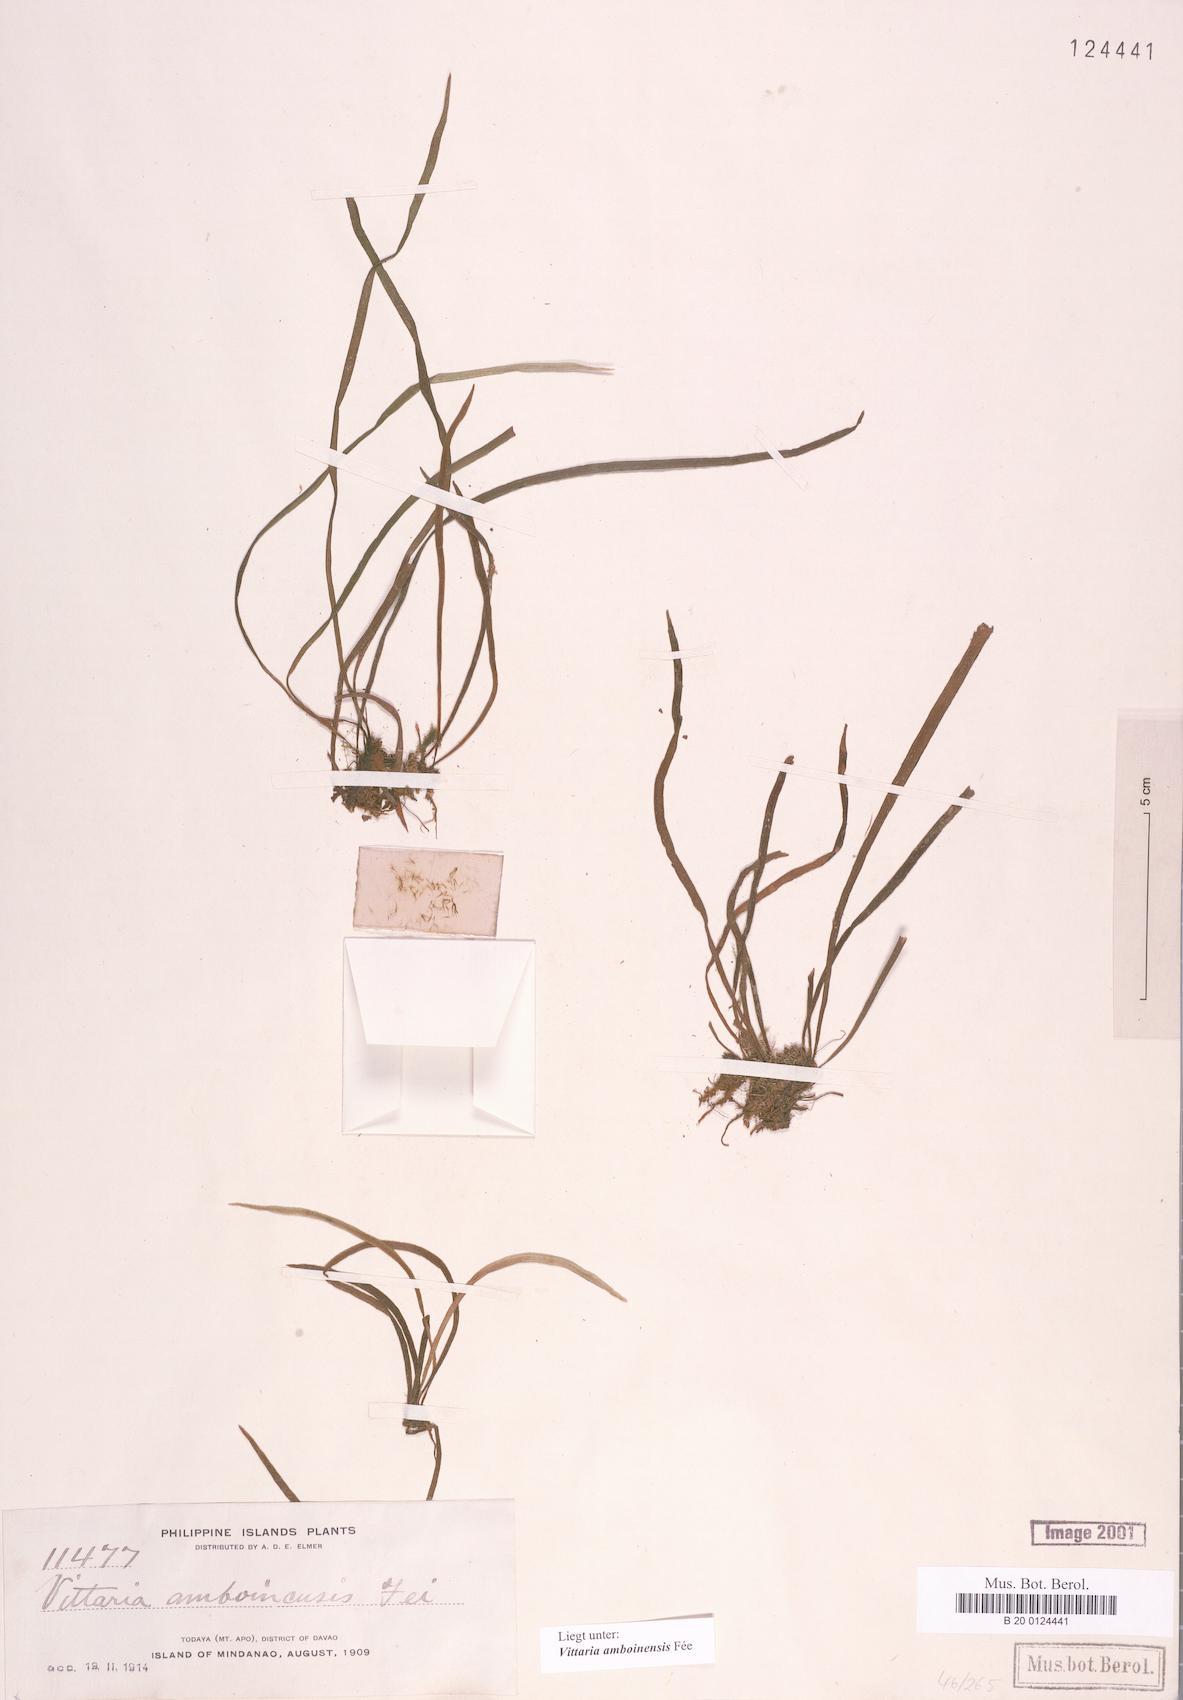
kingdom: Plantae
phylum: Tracheophyta
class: Polypodiopsida
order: Polypodiales
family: Pteridaceae
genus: Haplopteris
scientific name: Haplopteris mindanaoensis
